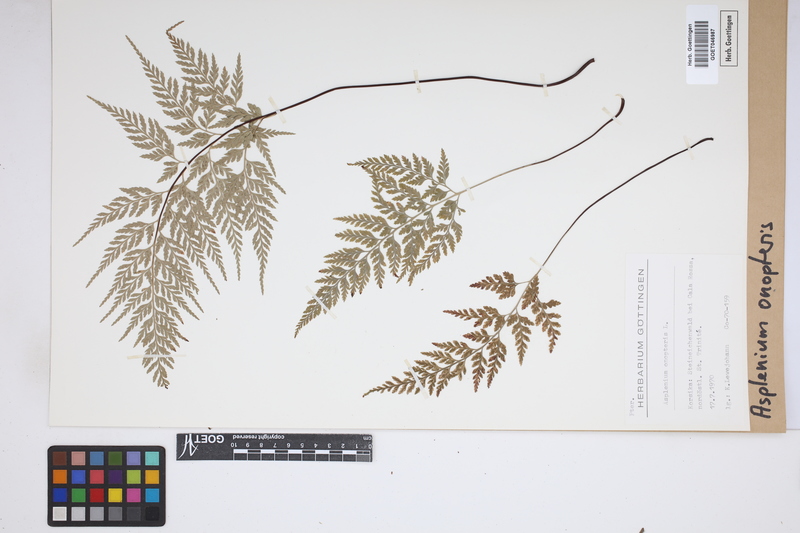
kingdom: Plantae
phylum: Tracheophyta
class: Polypodiopsida
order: Polypodiales
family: Aspleniaceae
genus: Asplenium
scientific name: Asplenium onopteris
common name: Irish spleenwort
